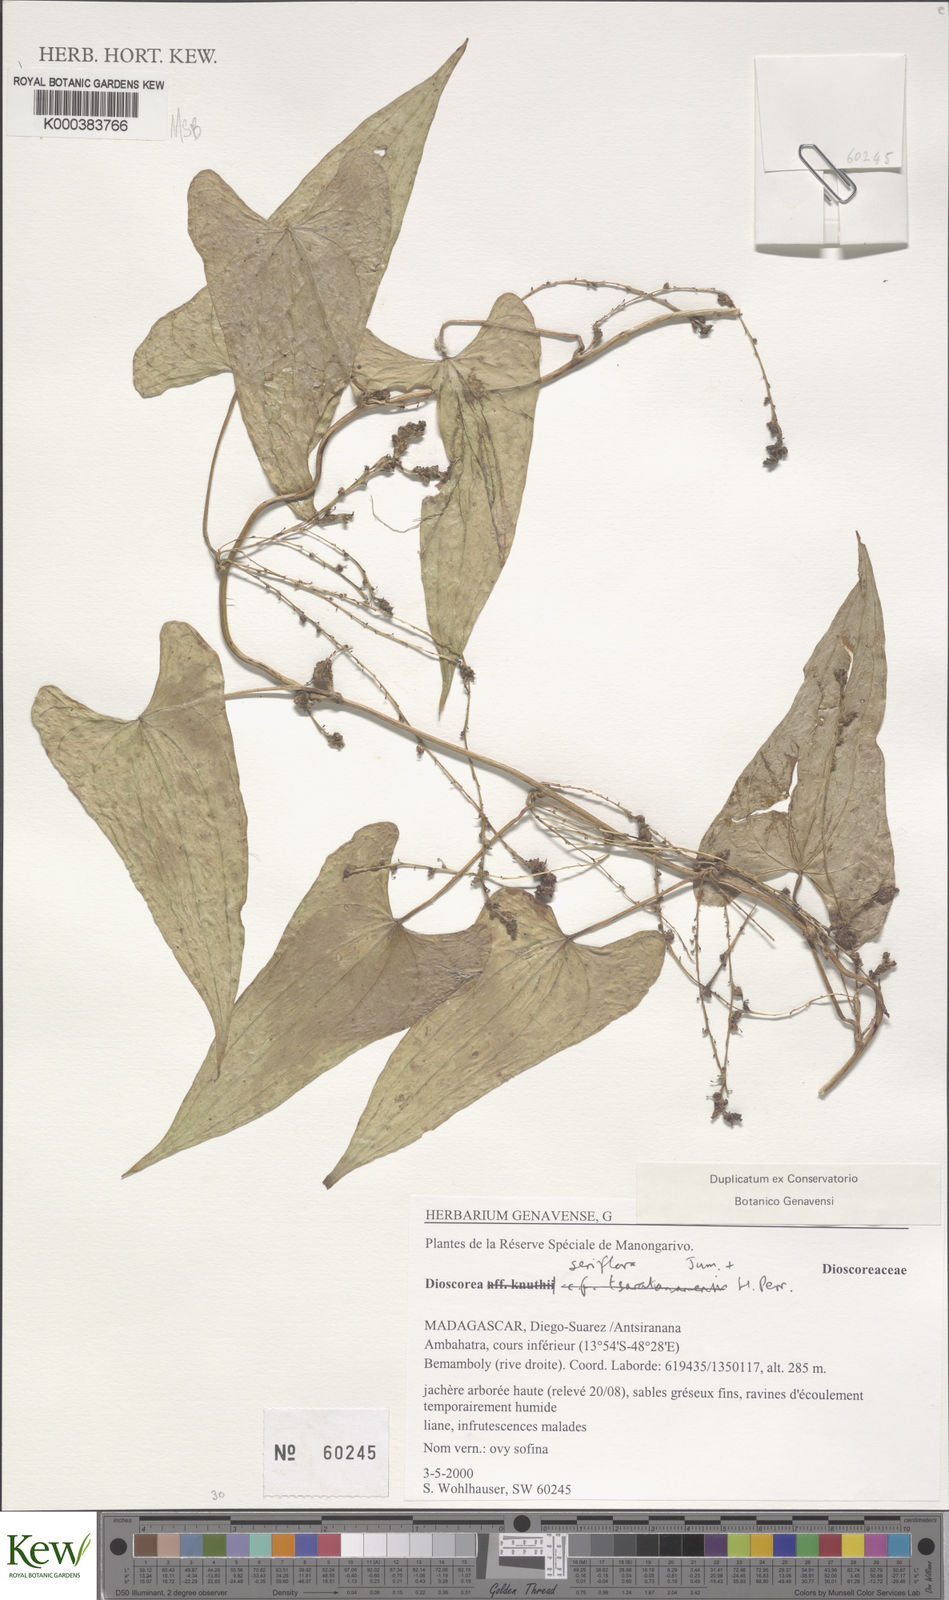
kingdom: Plantae
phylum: Tracheophyta
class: Liliopsida
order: Dioscoreales
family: Dioscoreaceae
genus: Dioscorea
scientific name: Dioscorea seriflora
